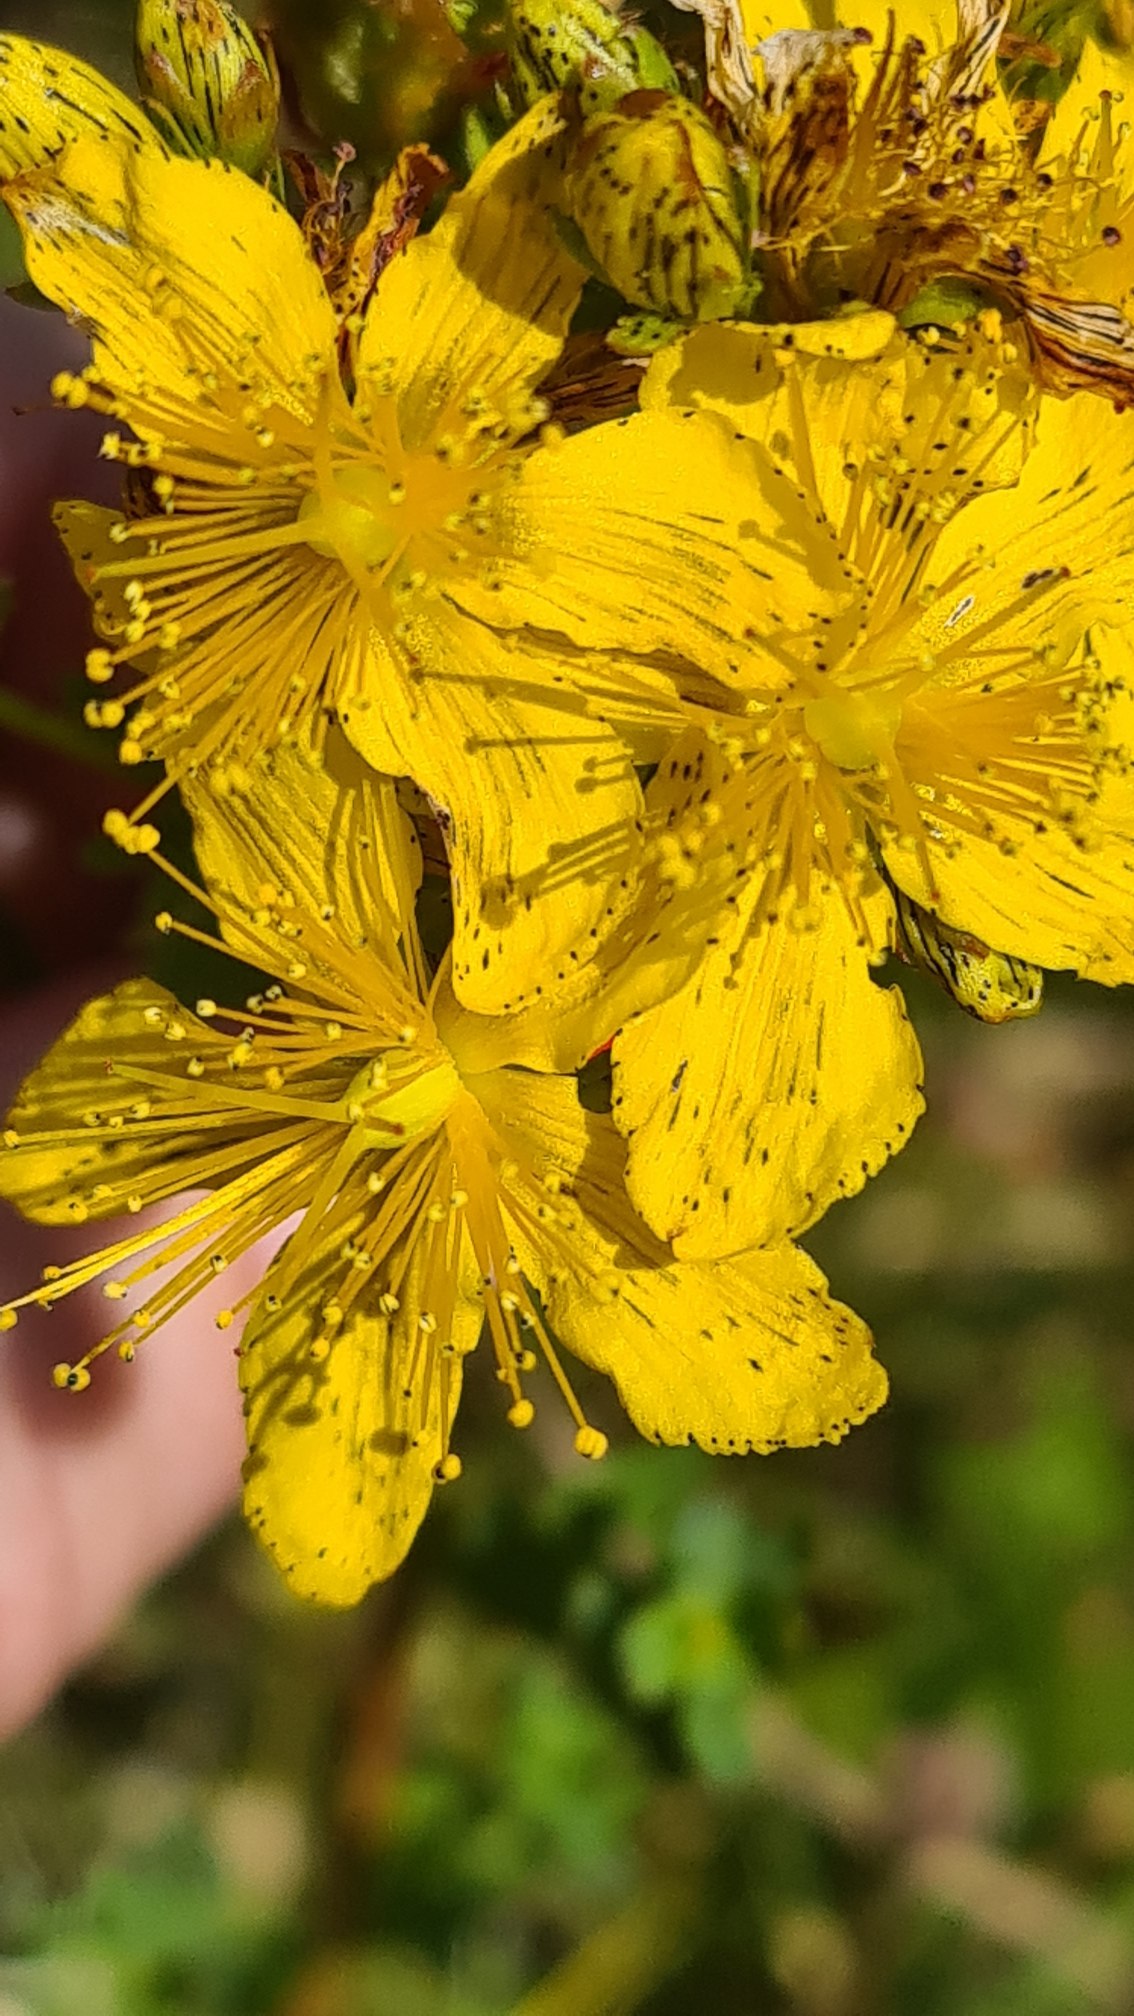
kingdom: Plantae
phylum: Tracheophyta
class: Magnoliopsida
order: Malpighiales
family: Hypericaceae
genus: Hypericum
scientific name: Hypericum maculatum
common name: Kantet perikon
